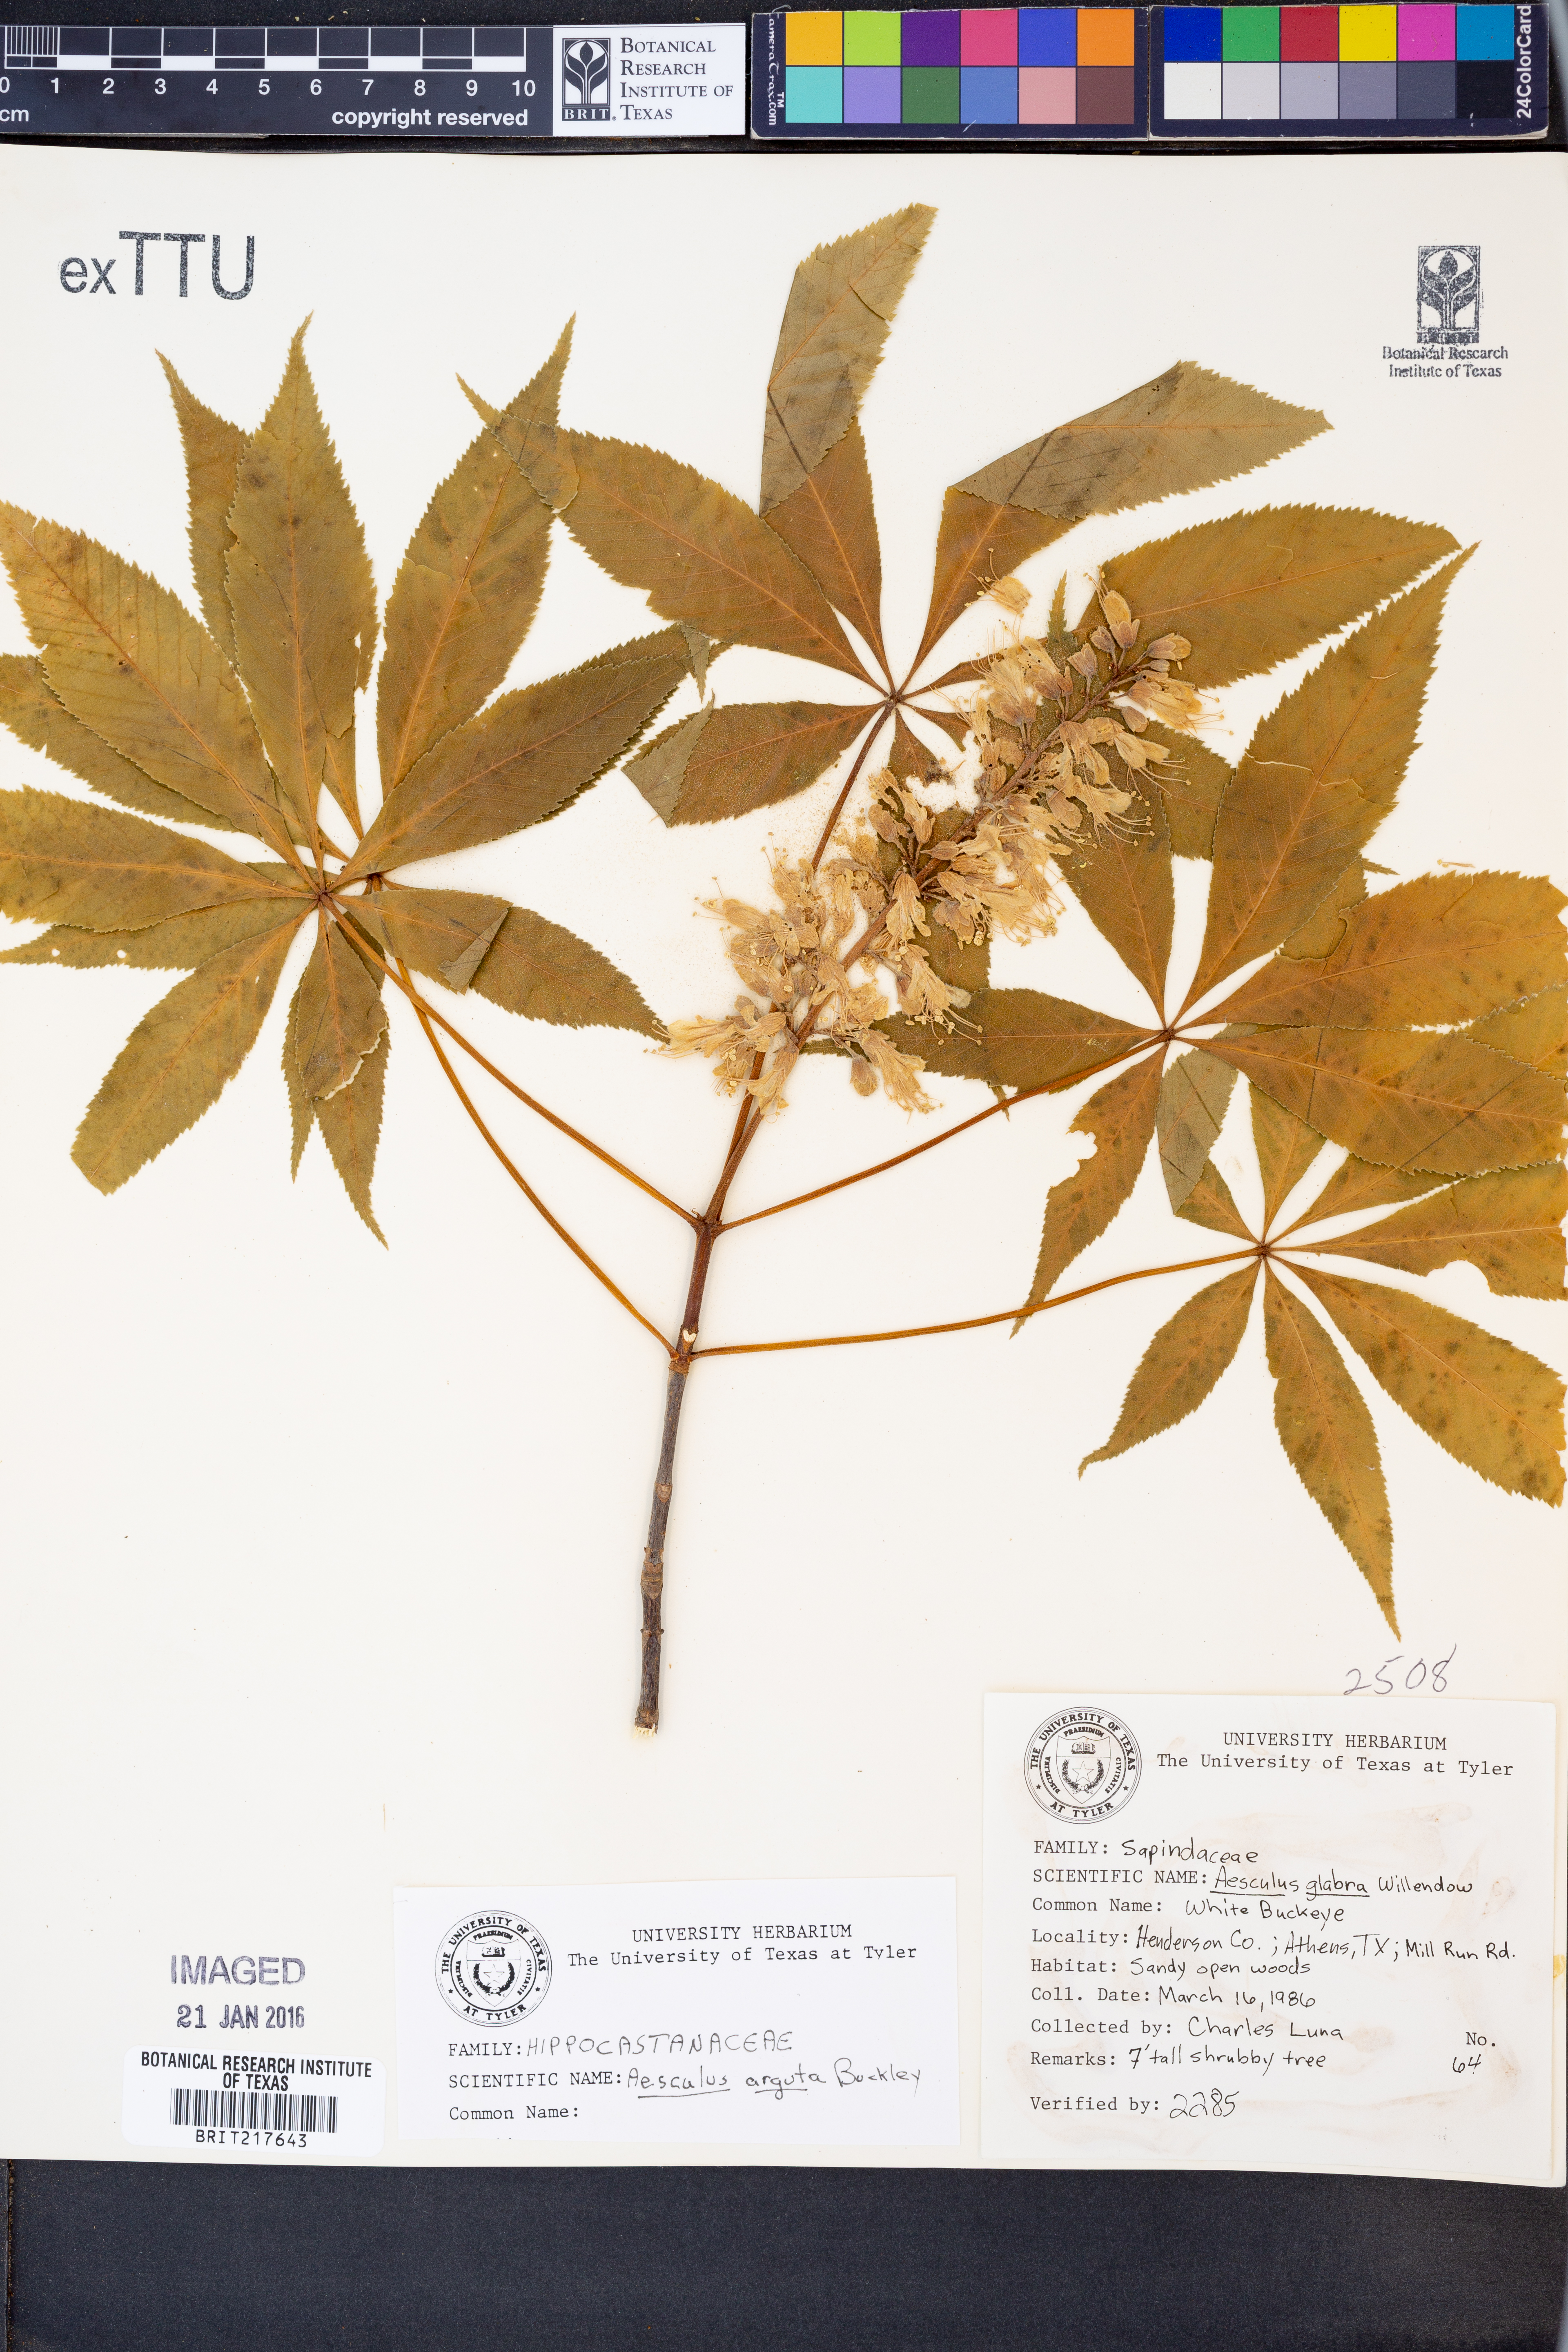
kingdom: Plantae
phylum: Tracheophyta
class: Magnoliopsida
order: Sapindales
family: Sapindaceae
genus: Aesculus
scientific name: Aesculus glabra
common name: Ohio buckeye
